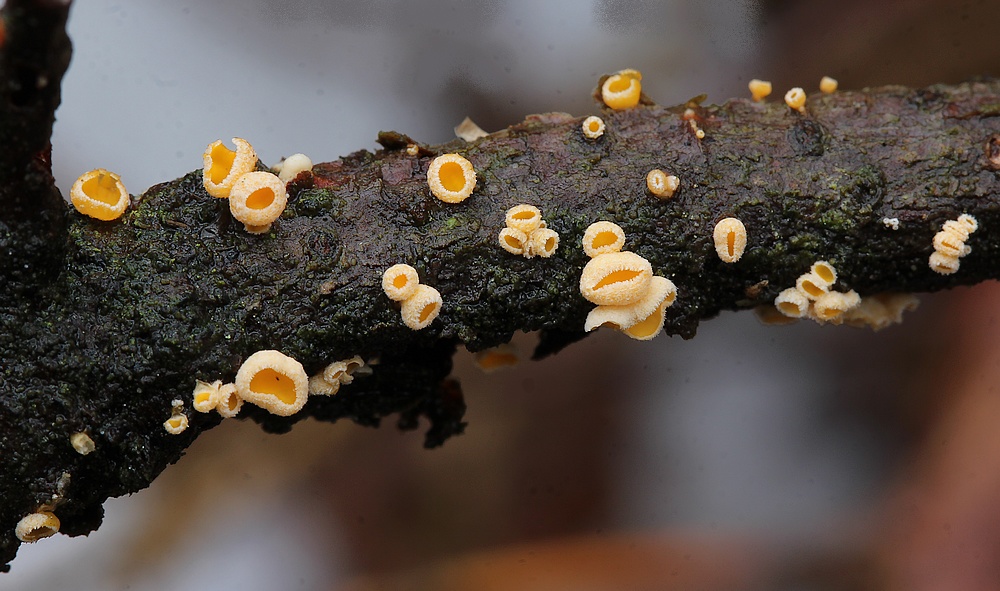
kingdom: Fungi
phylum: Ascomycota
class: Leotiomycetes
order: Helotiales
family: Lachnaceae
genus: Lachnellula
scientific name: Lachnellula subtilissima
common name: gran-frynseskive
